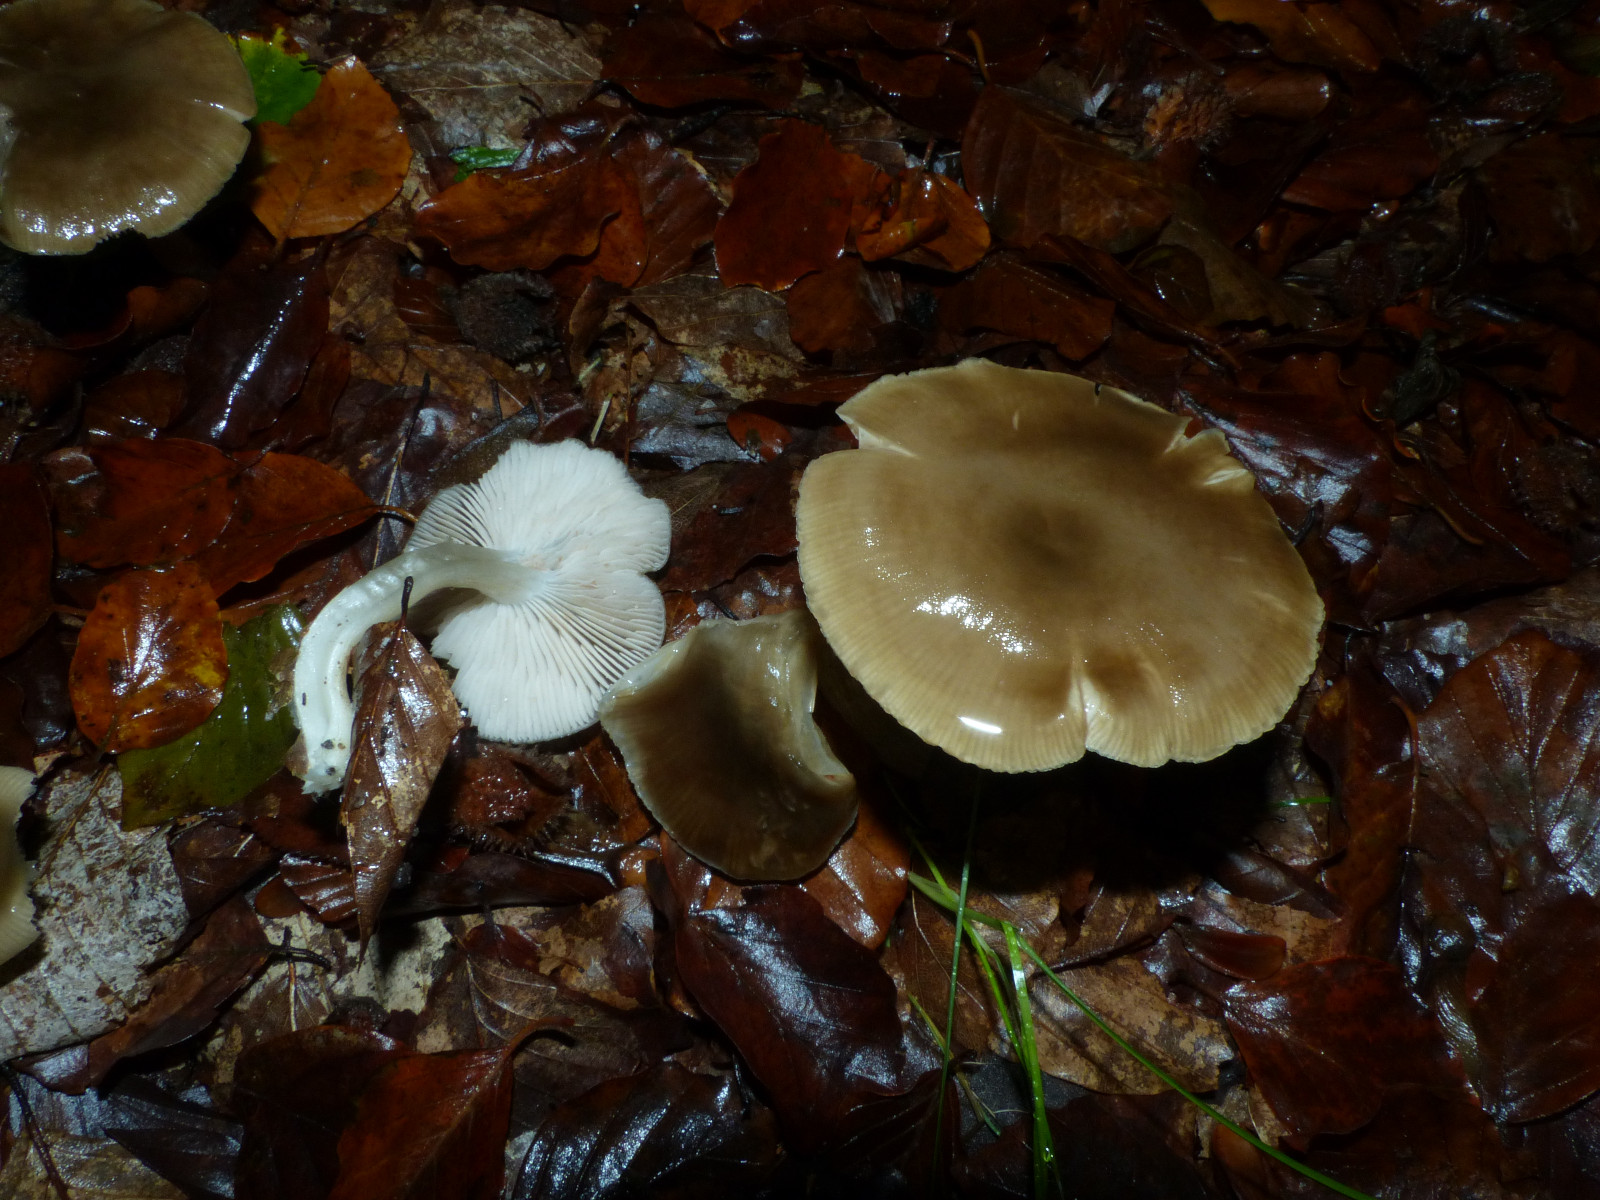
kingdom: Fungi
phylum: Basidiomycota
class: Agaricomycetes
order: Agaricales
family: Entolomataceae
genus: Entoloma
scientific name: Entoloma
